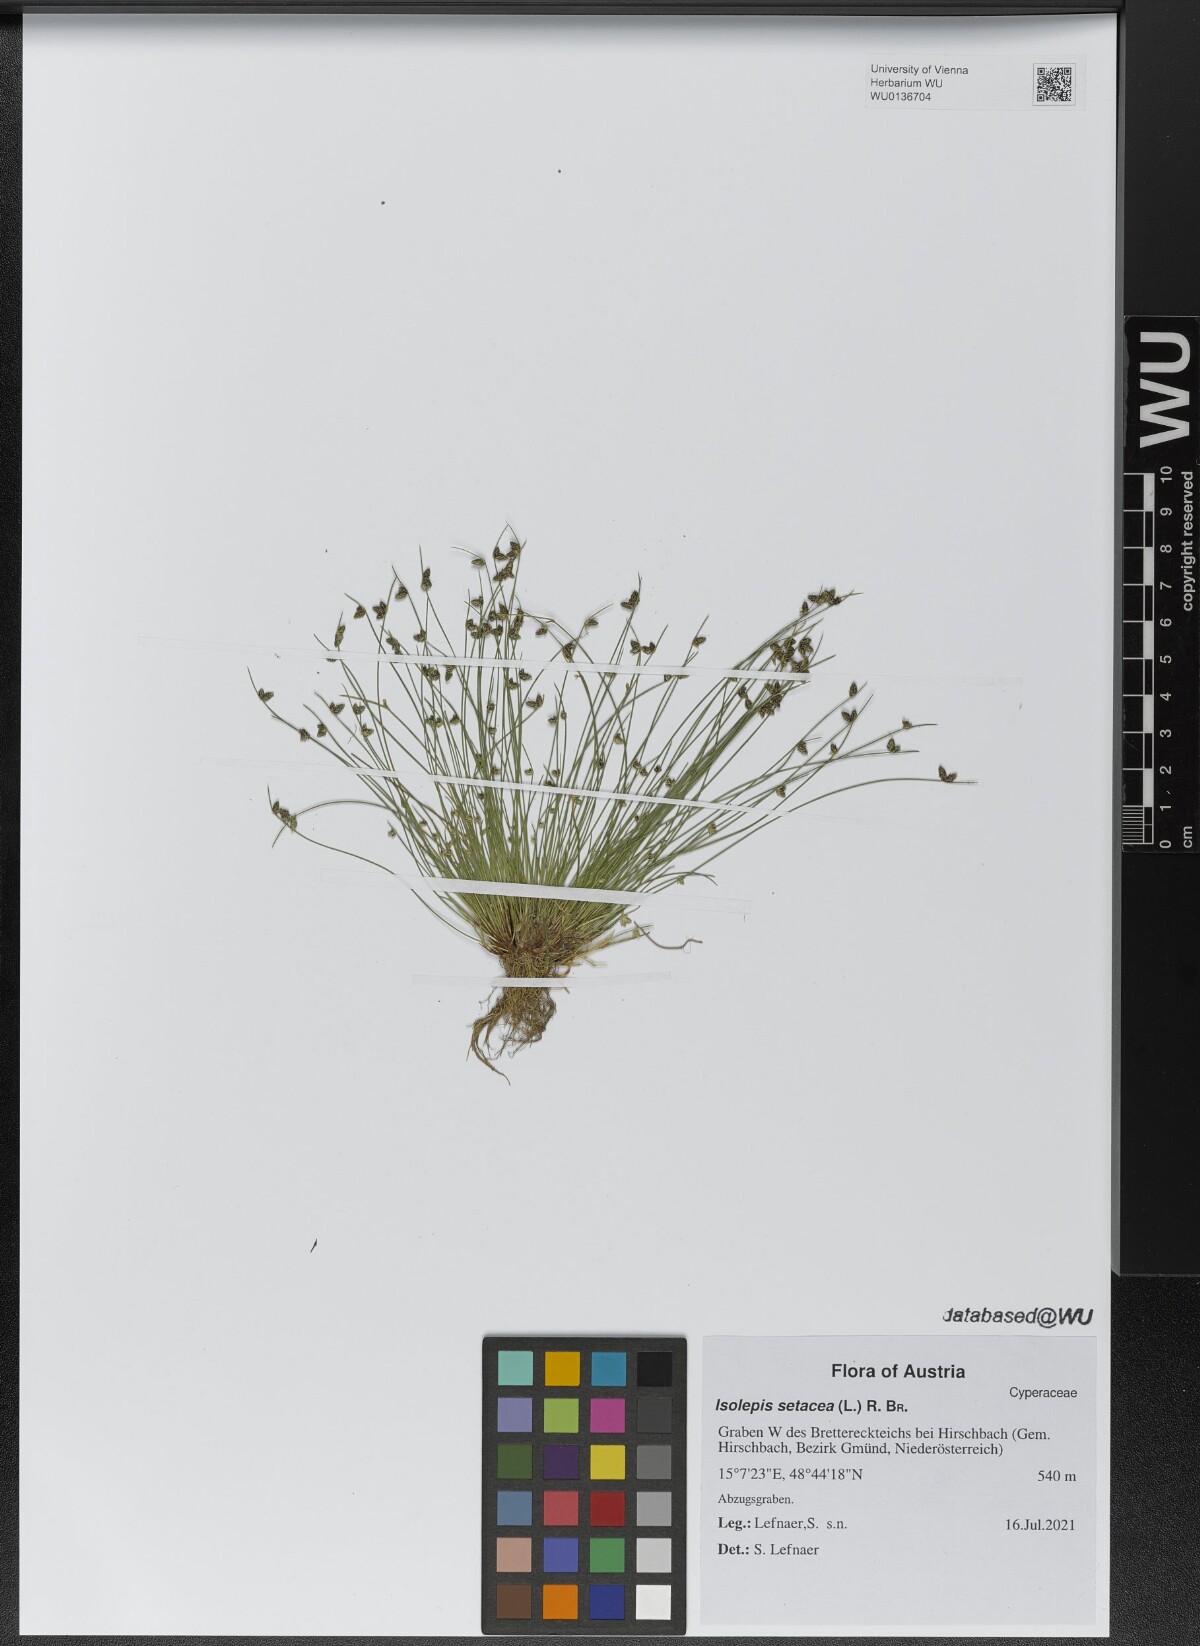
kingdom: Plantae
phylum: Tracheophyta
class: Liliopsida
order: Poales
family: Cyperaceae
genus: Isolepis
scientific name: Isolepis setacea
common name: Bristle club-rush
